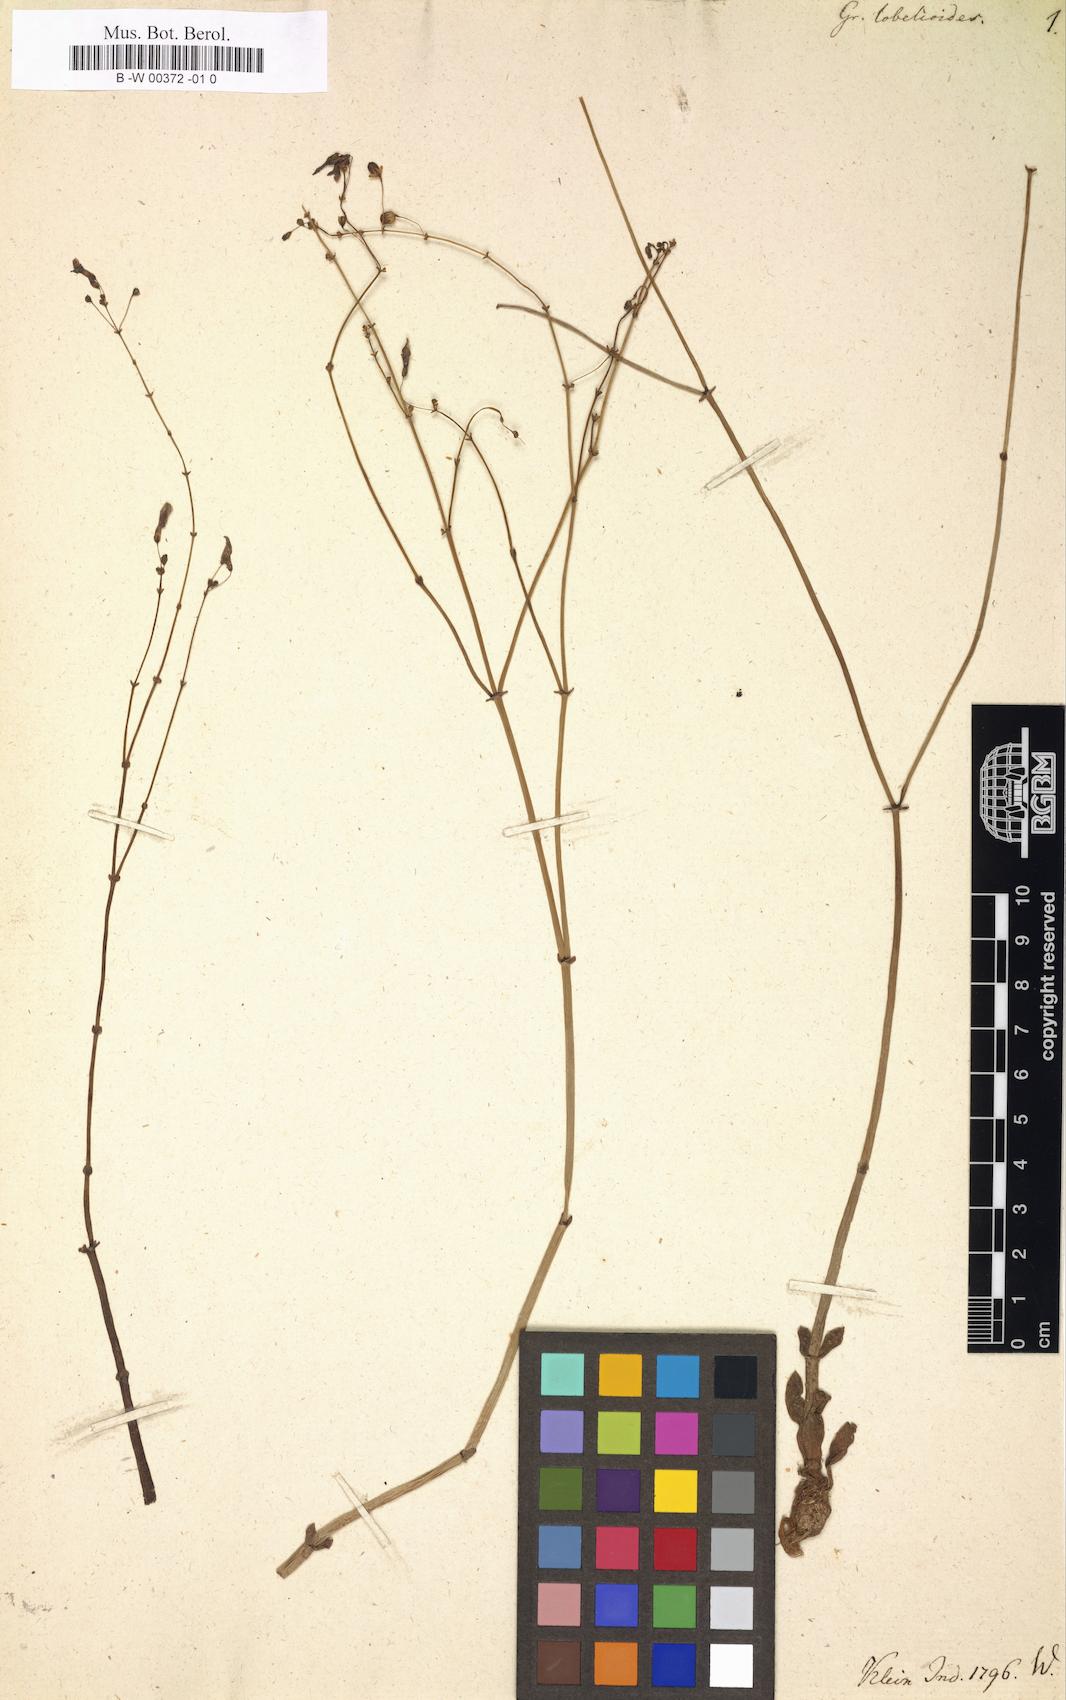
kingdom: Plantae
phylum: Tracheophyta
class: Magnoliopsida
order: Lamiales
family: Plantaginaceae
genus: Dopatrium
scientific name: Dopatrium lobelioides
